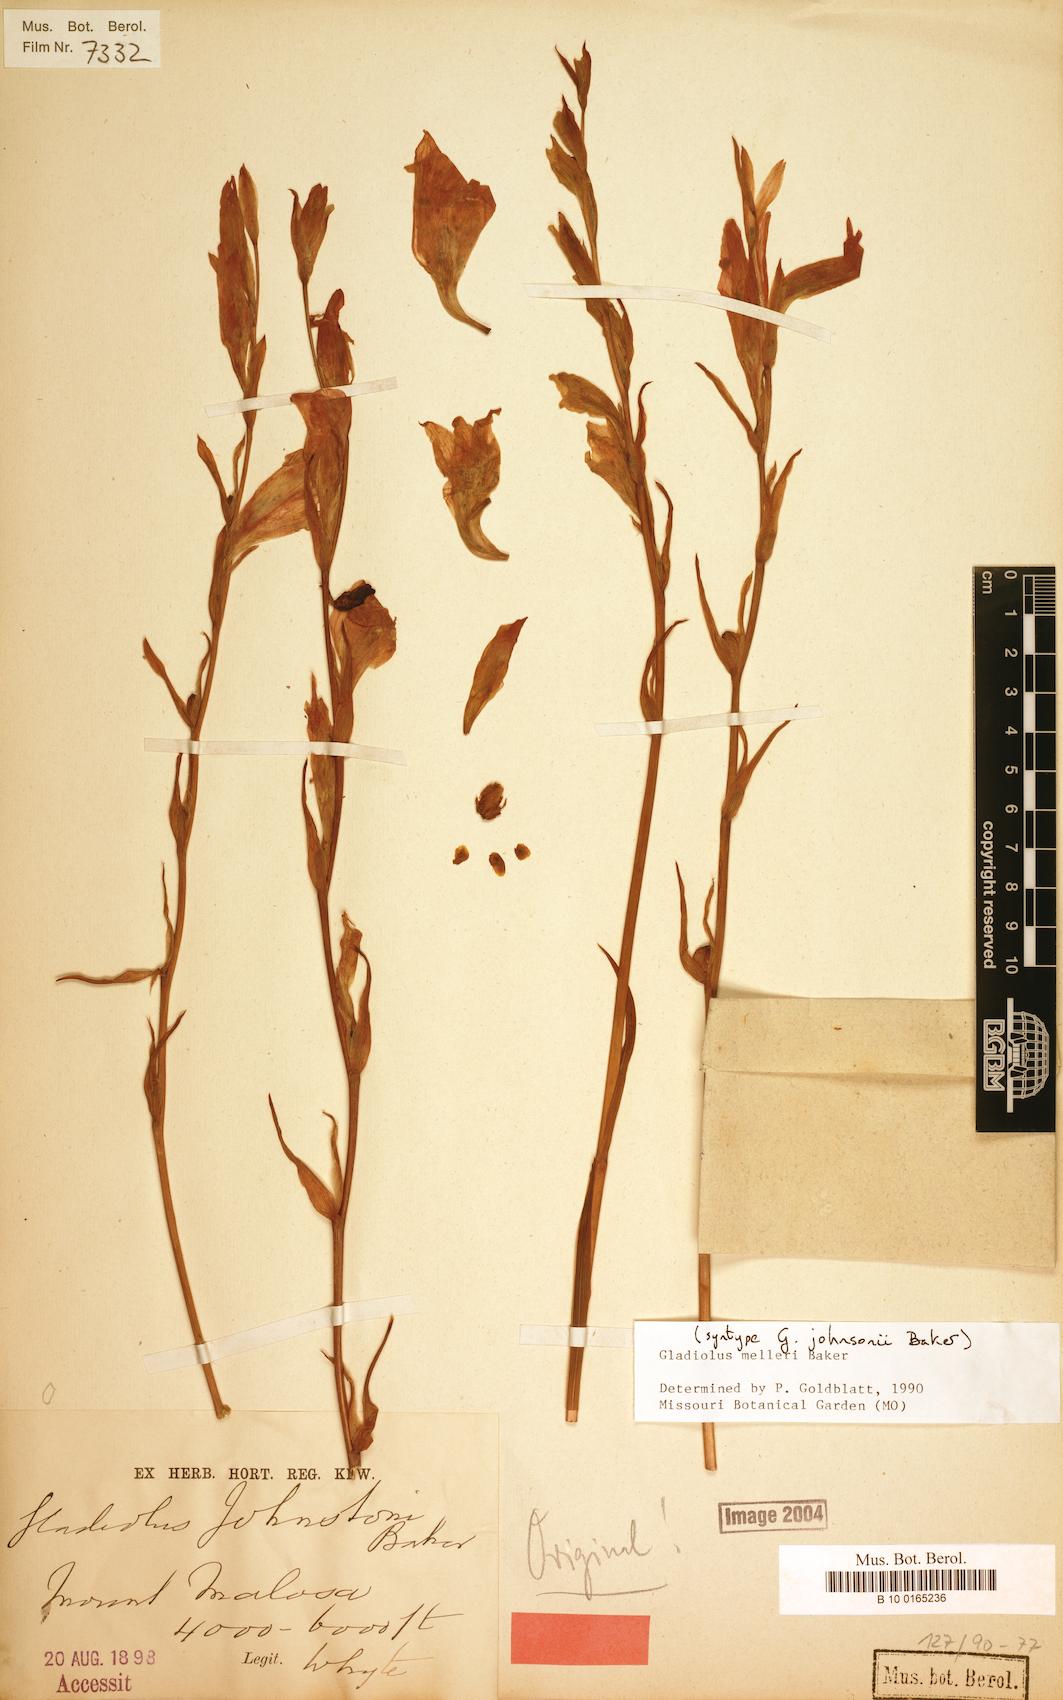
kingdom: Plantae
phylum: Tracheophyta
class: Liliopsida
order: Asparagales
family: Iridaceae
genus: Gladiolus
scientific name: Gladiolus melleri
